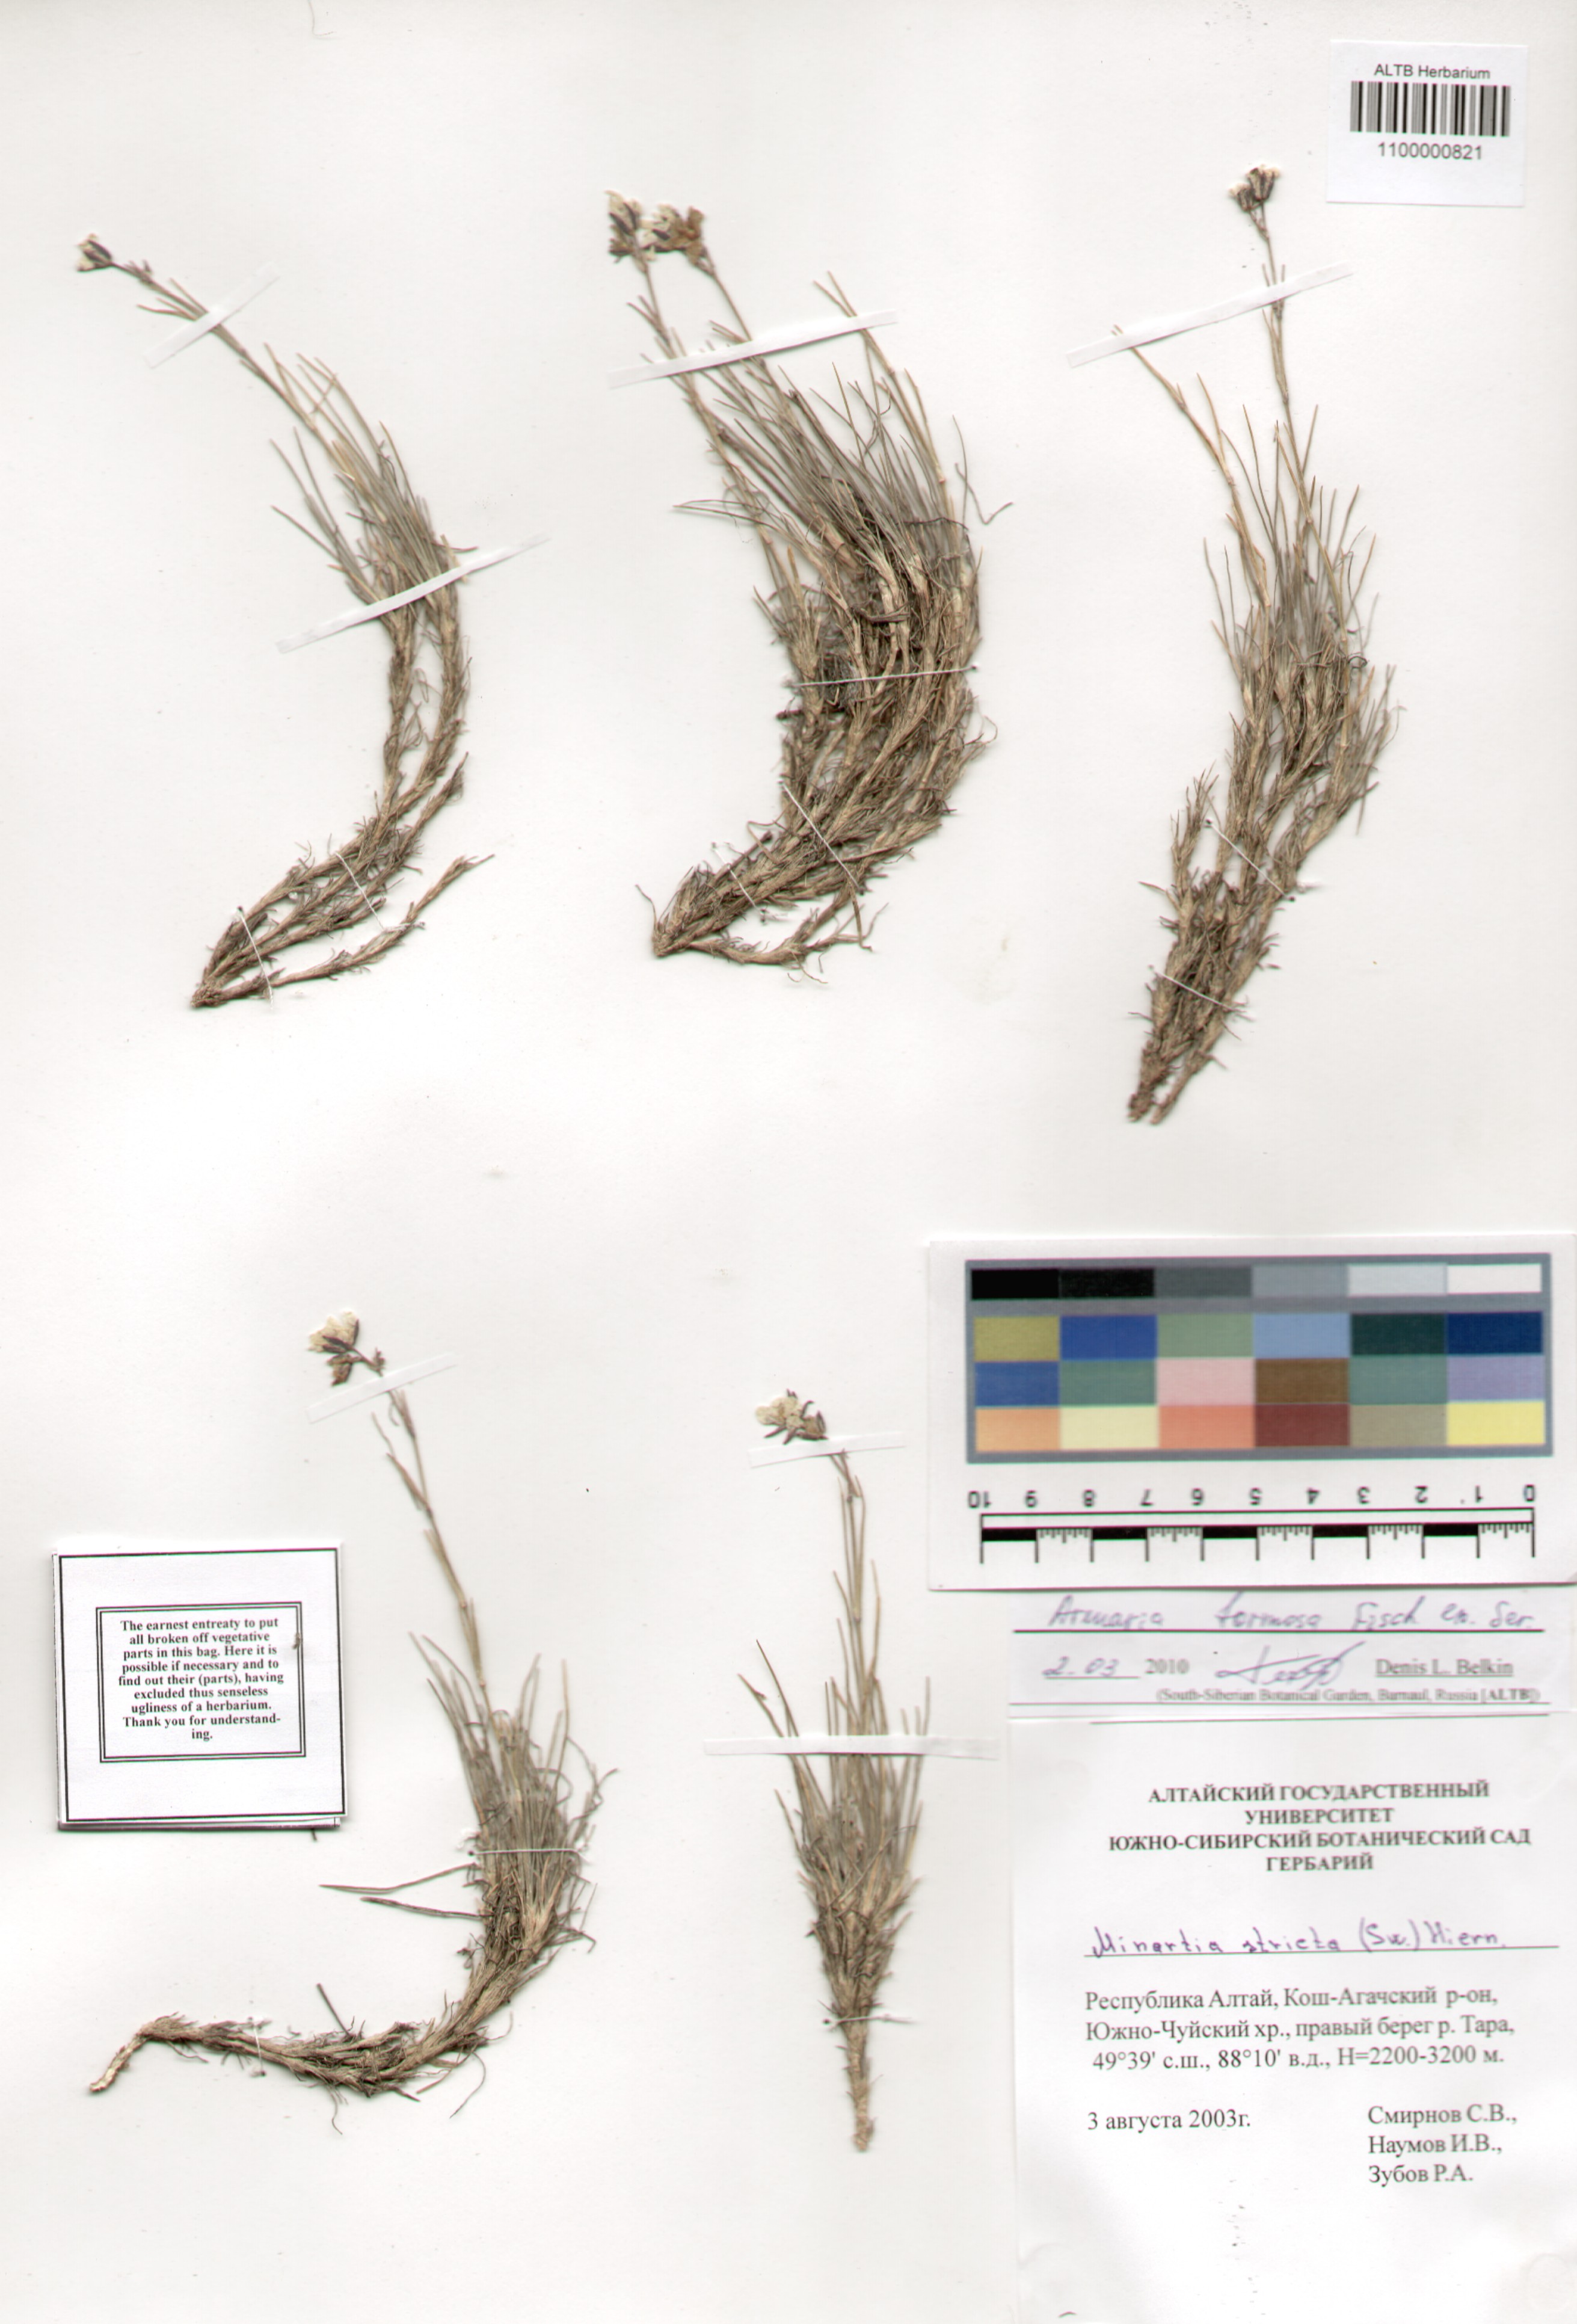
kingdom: Plantae
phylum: Tracheophyta
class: Magnoliopsida
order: Caryophyllales
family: Caryophyllaceae
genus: Eremogone
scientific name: Eremogone formosa
